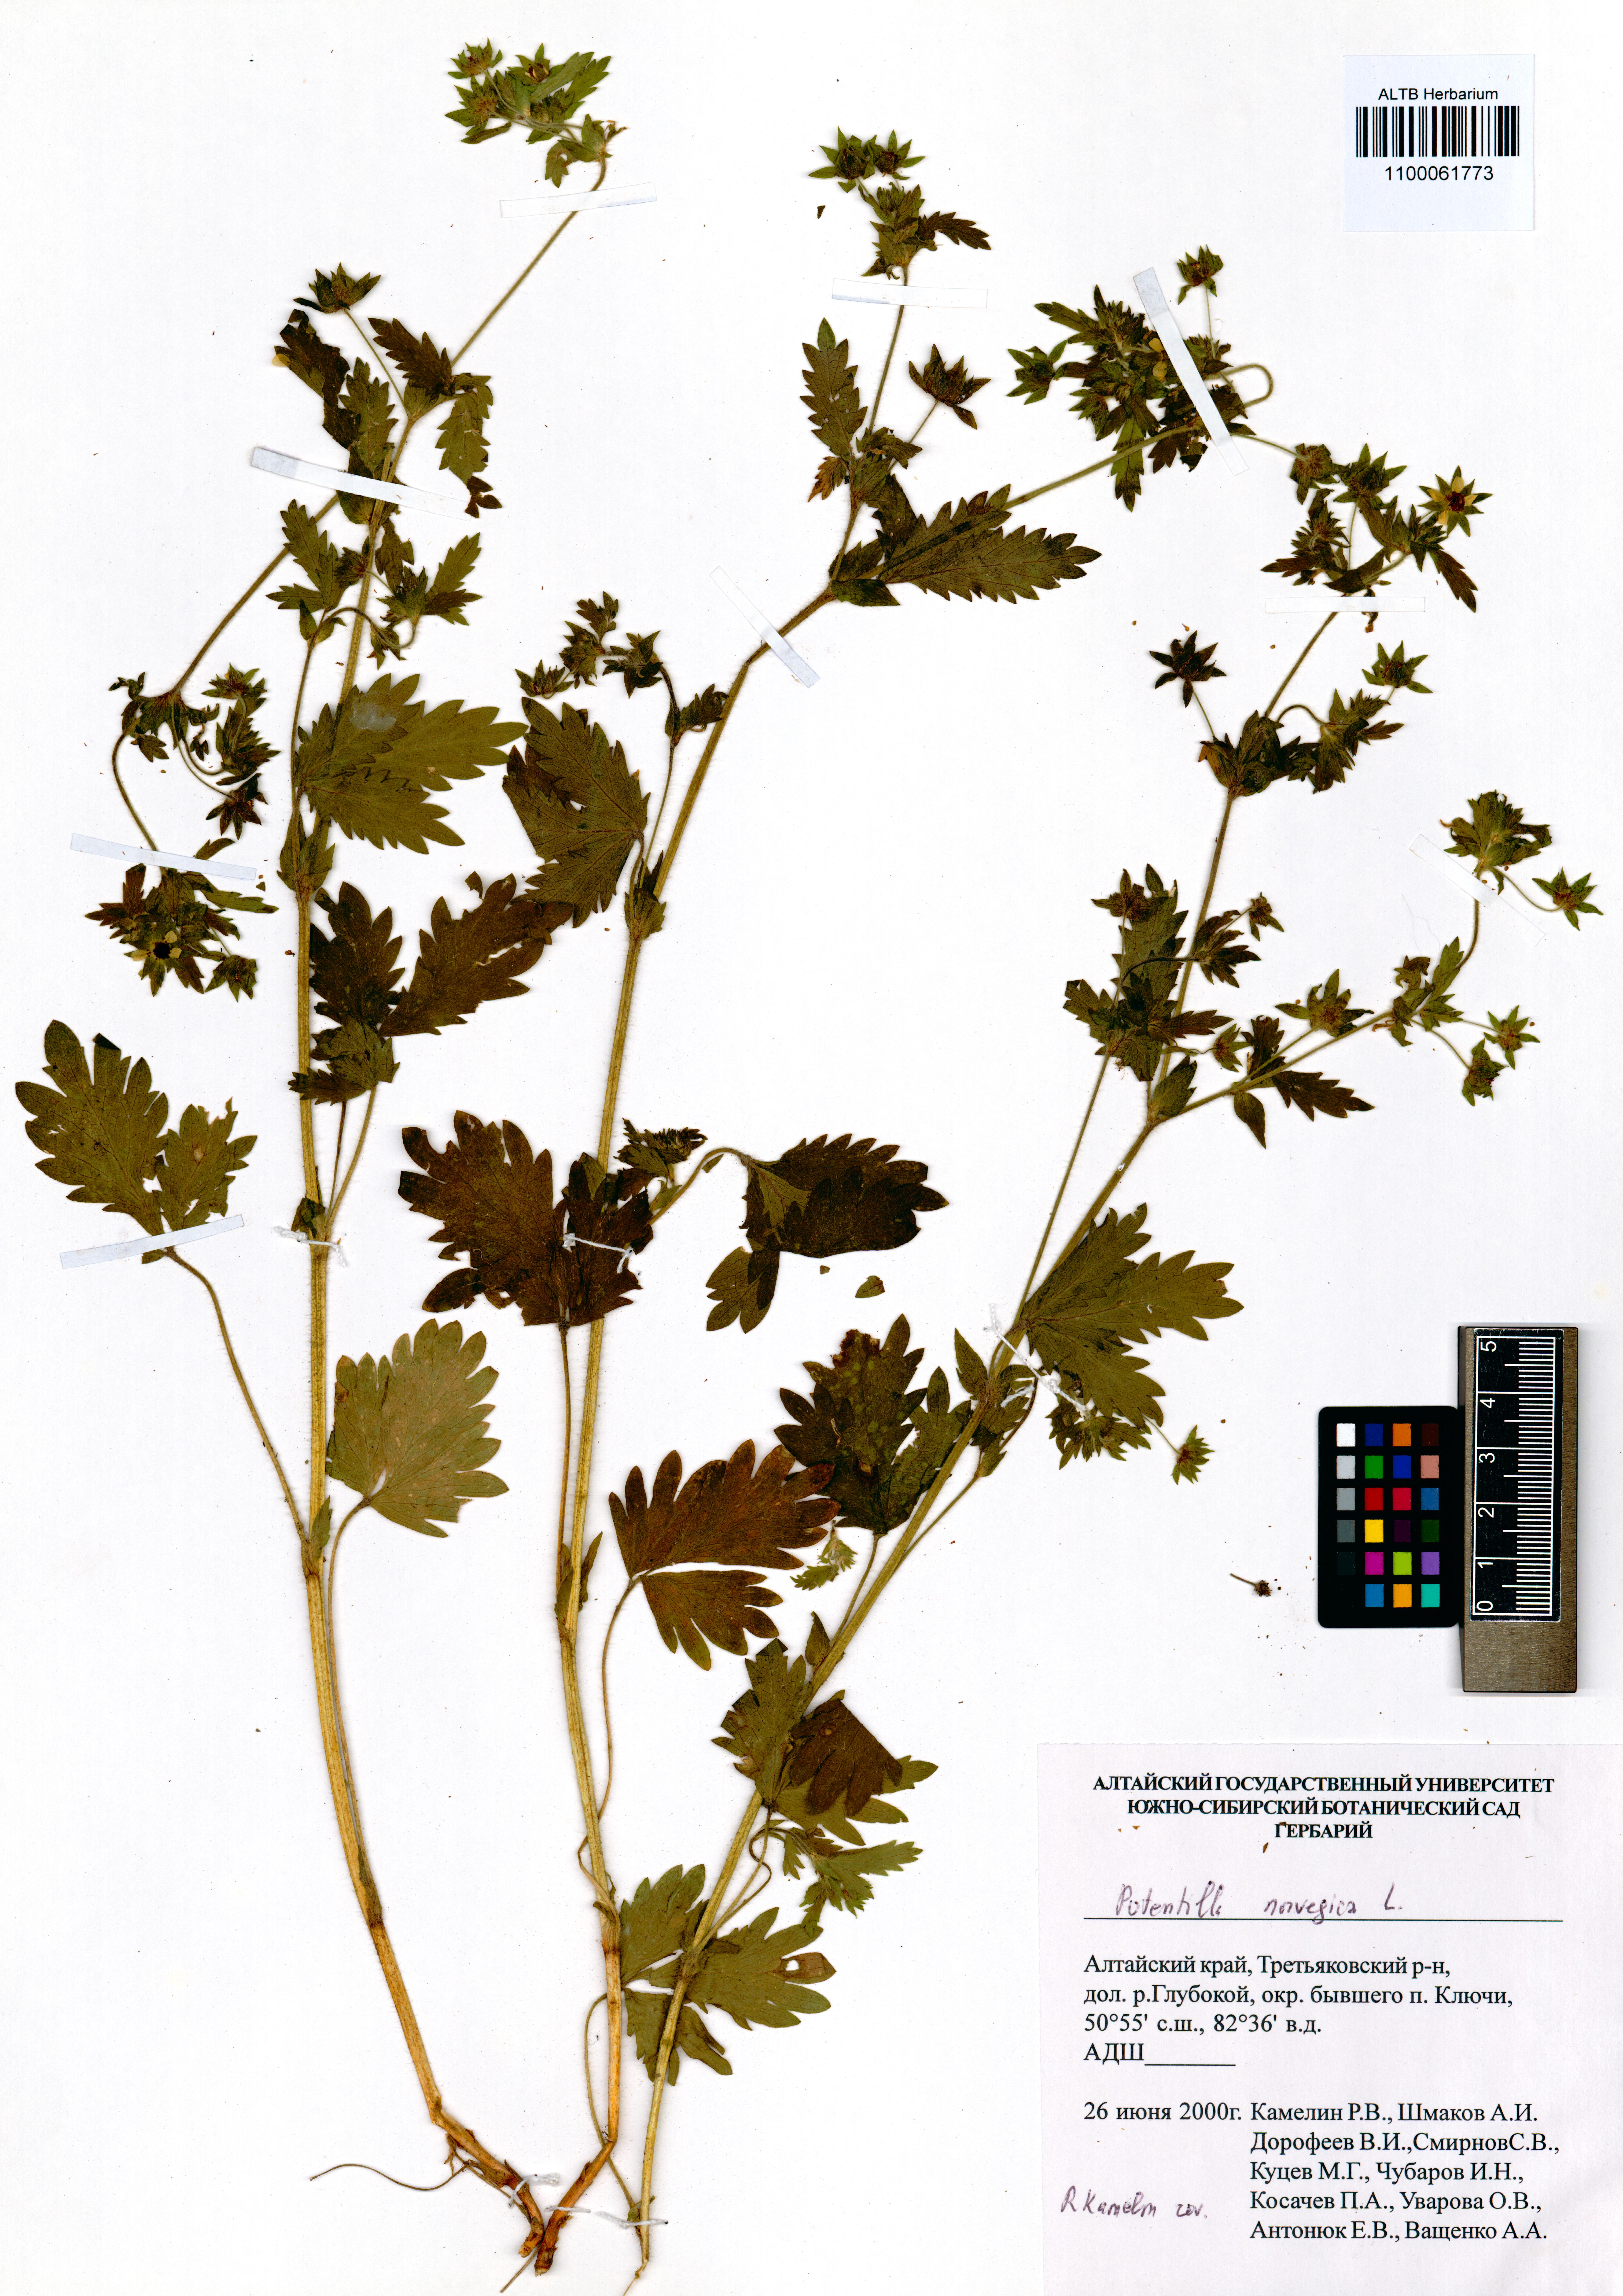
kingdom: Plantae
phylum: Tracheophyta
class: Magnoliopsida
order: Rosales
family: Rosaceae
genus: Potentilla
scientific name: Potentilla norvegica
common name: Ternate-leaved cinquefoil
